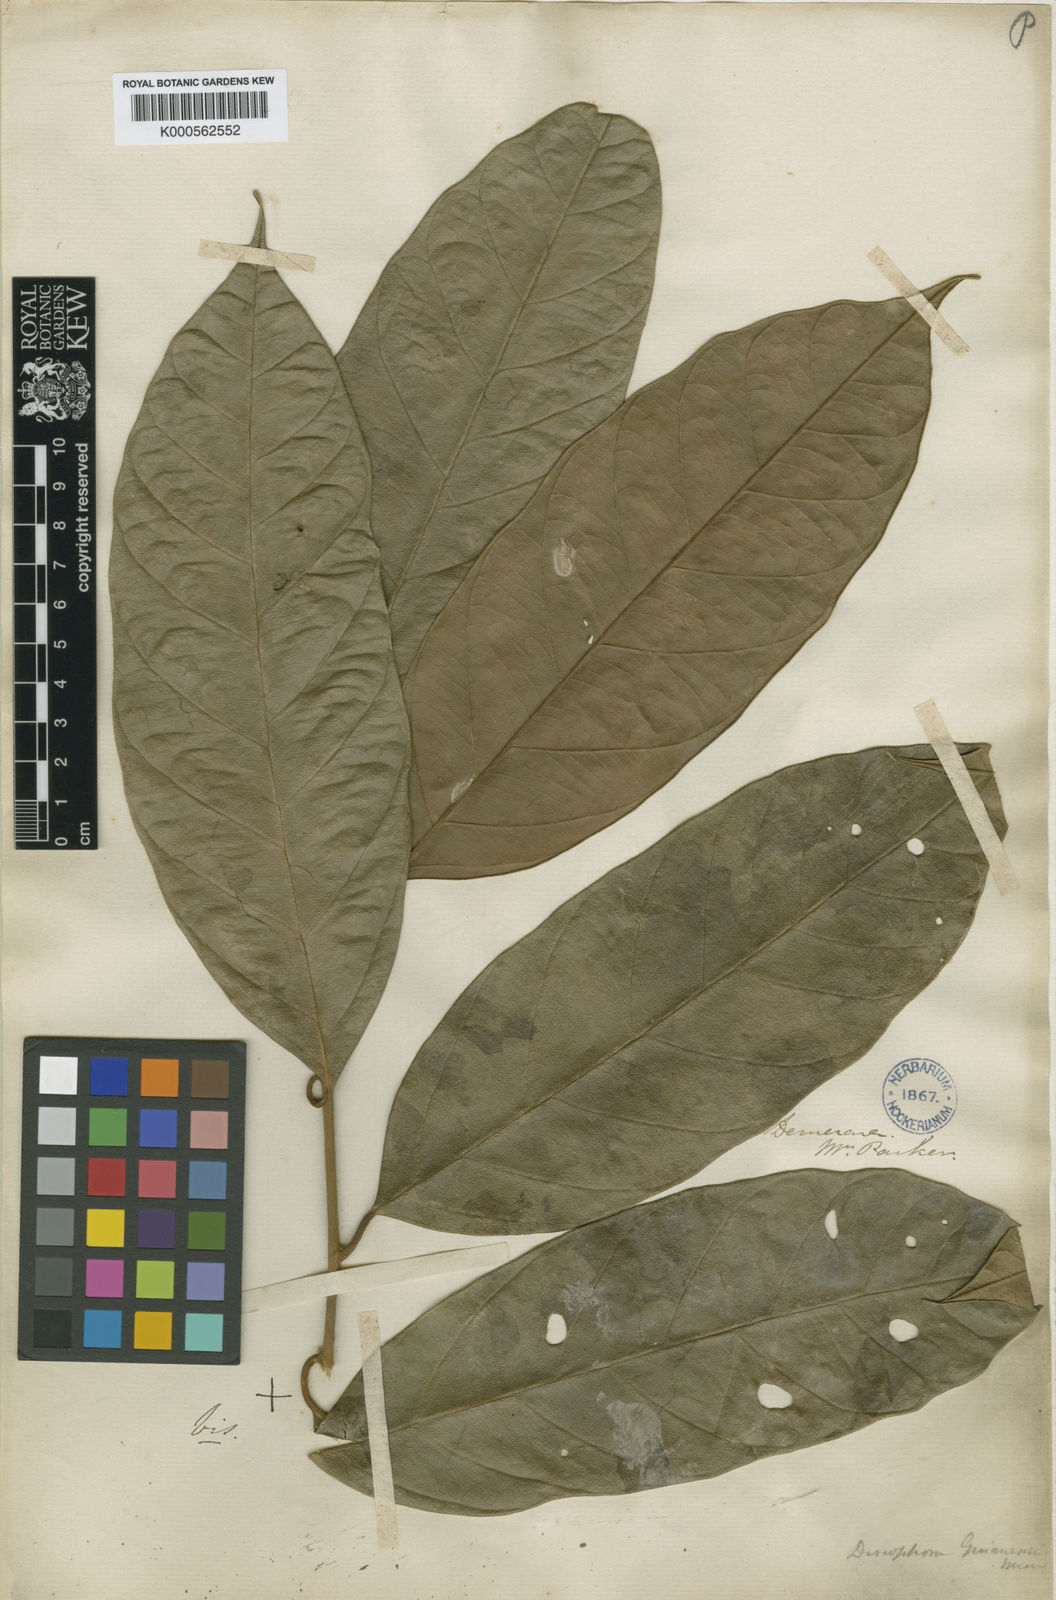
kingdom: Plantae
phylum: Tracheophyta
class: Magnoliopsida
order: Cardiopteridales
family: Stemonuraceae
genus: Discophora
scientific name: Discophora guianensis
